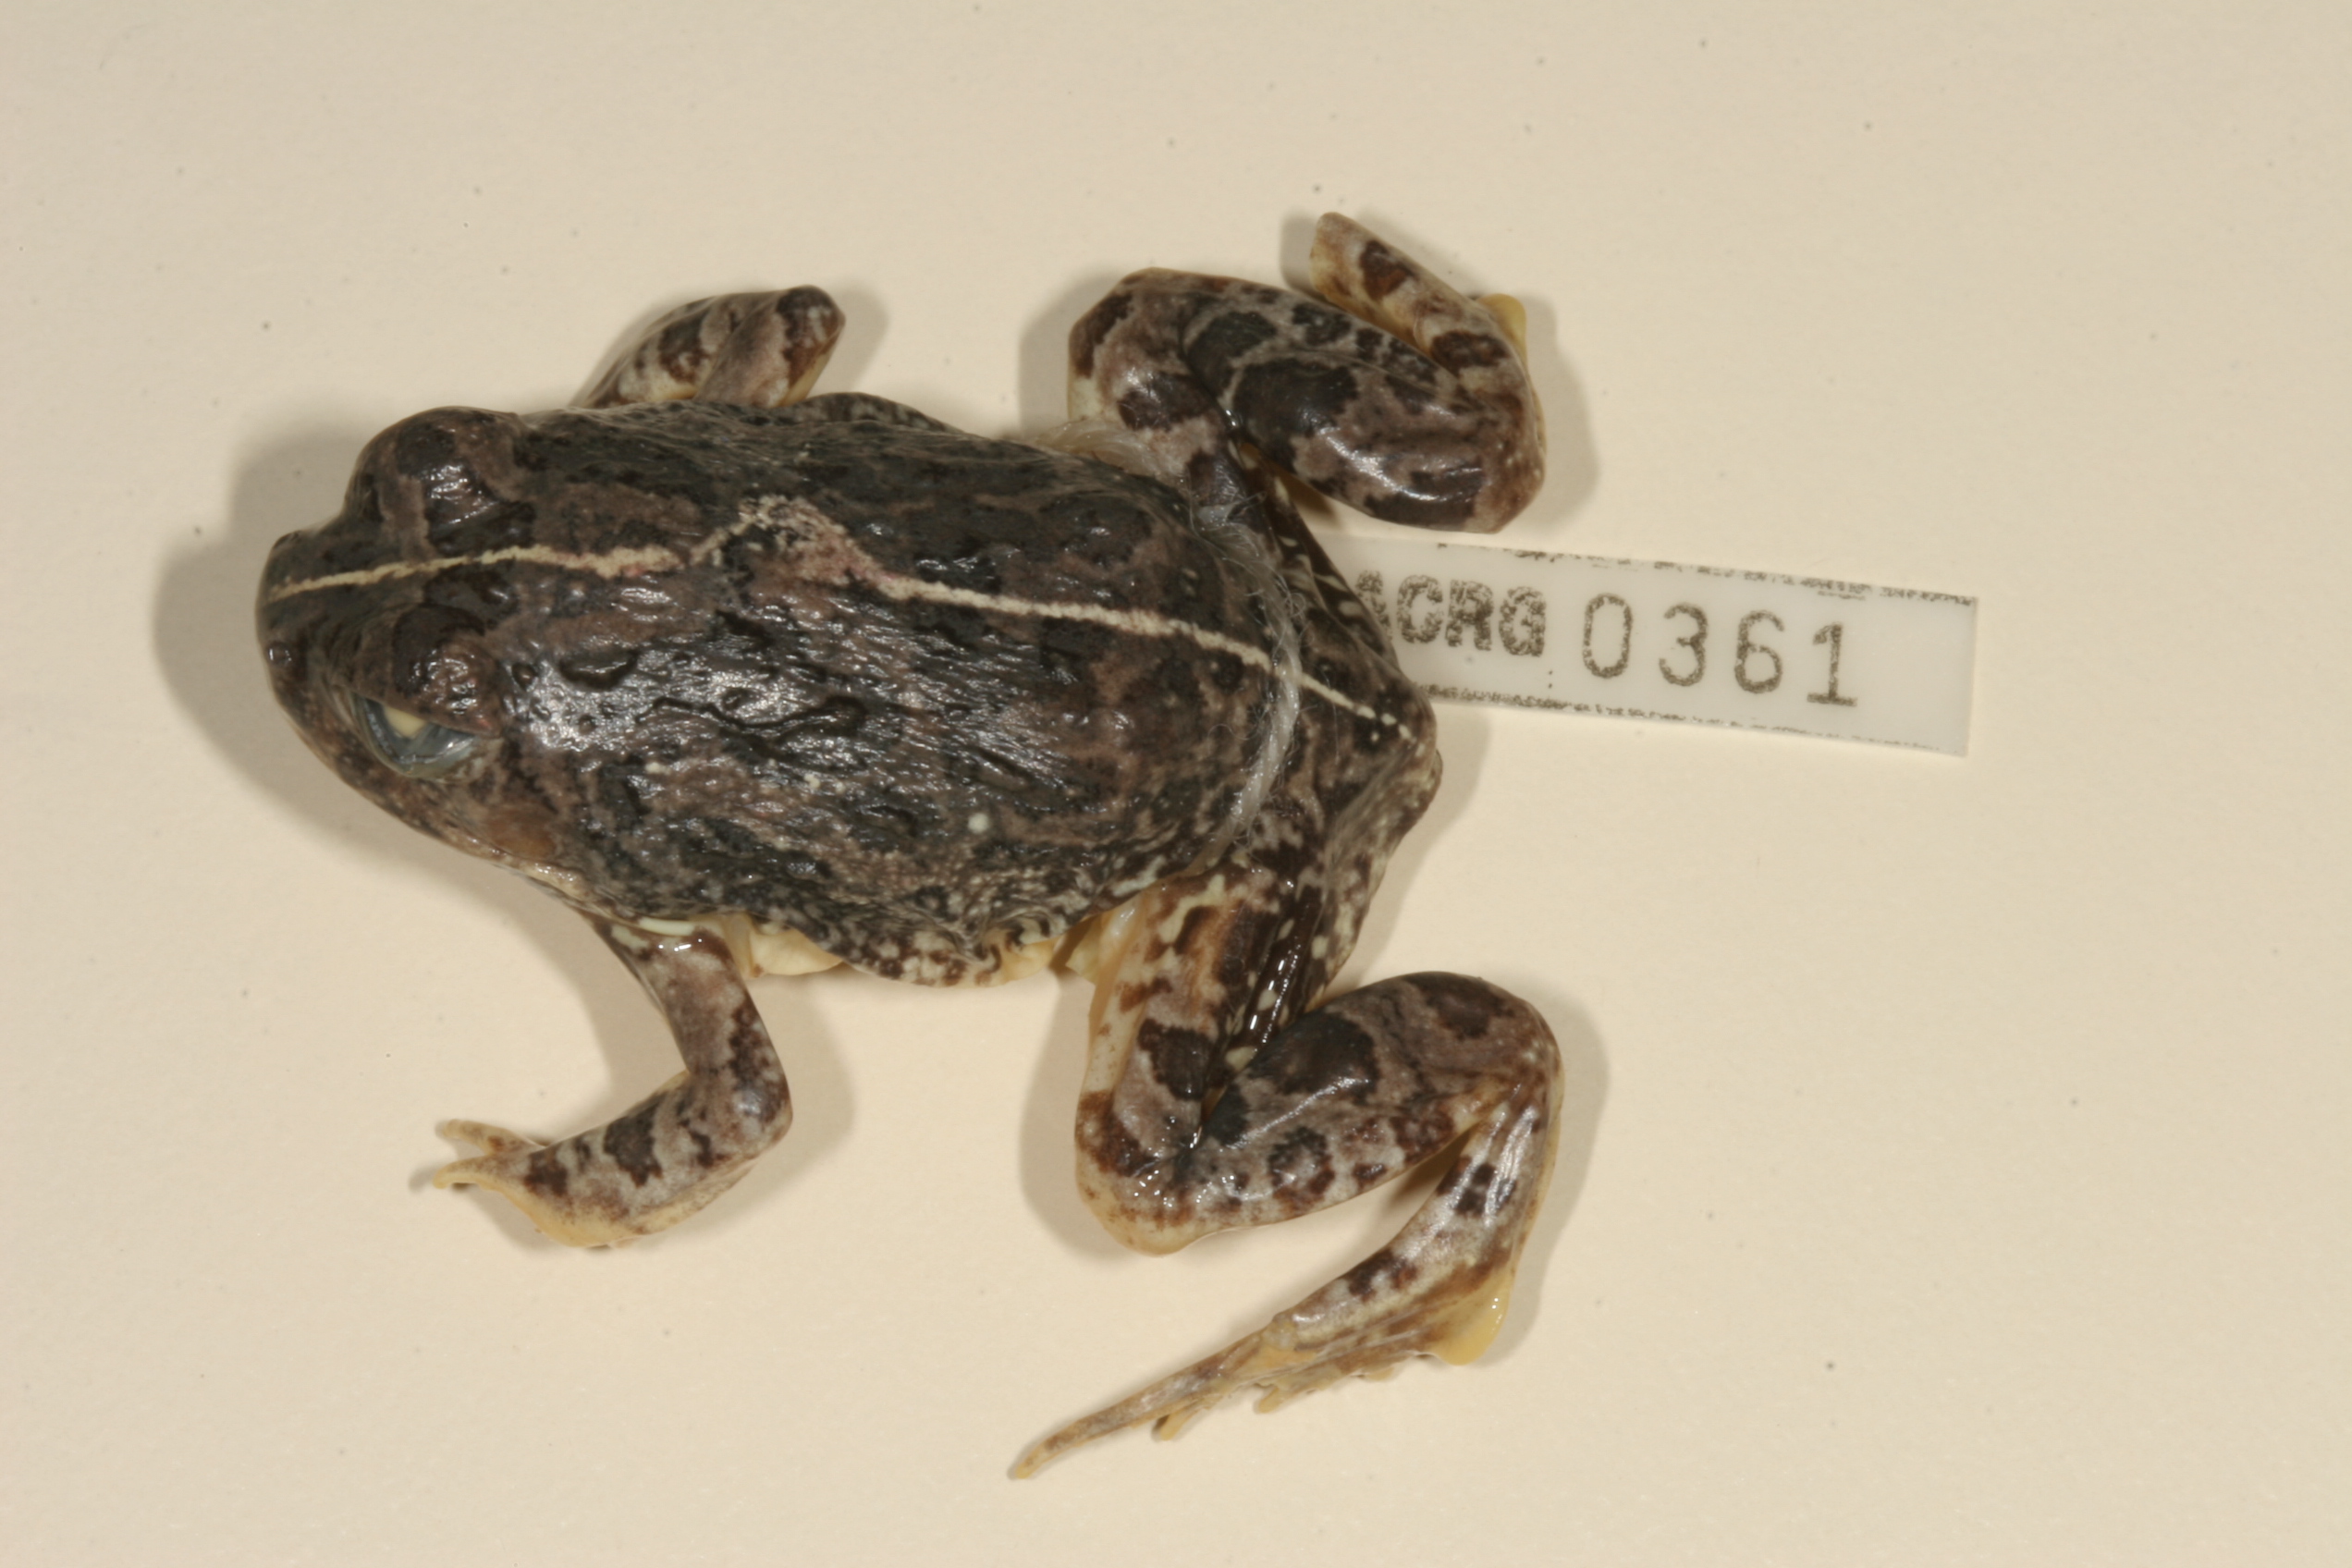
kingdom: Animalia
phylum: Chordata
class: Amphibia
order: Anura
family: Pyxicephalidae
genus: Tomopterna
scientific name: Tomopterna cryptotis
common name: Catequero bullfrog
